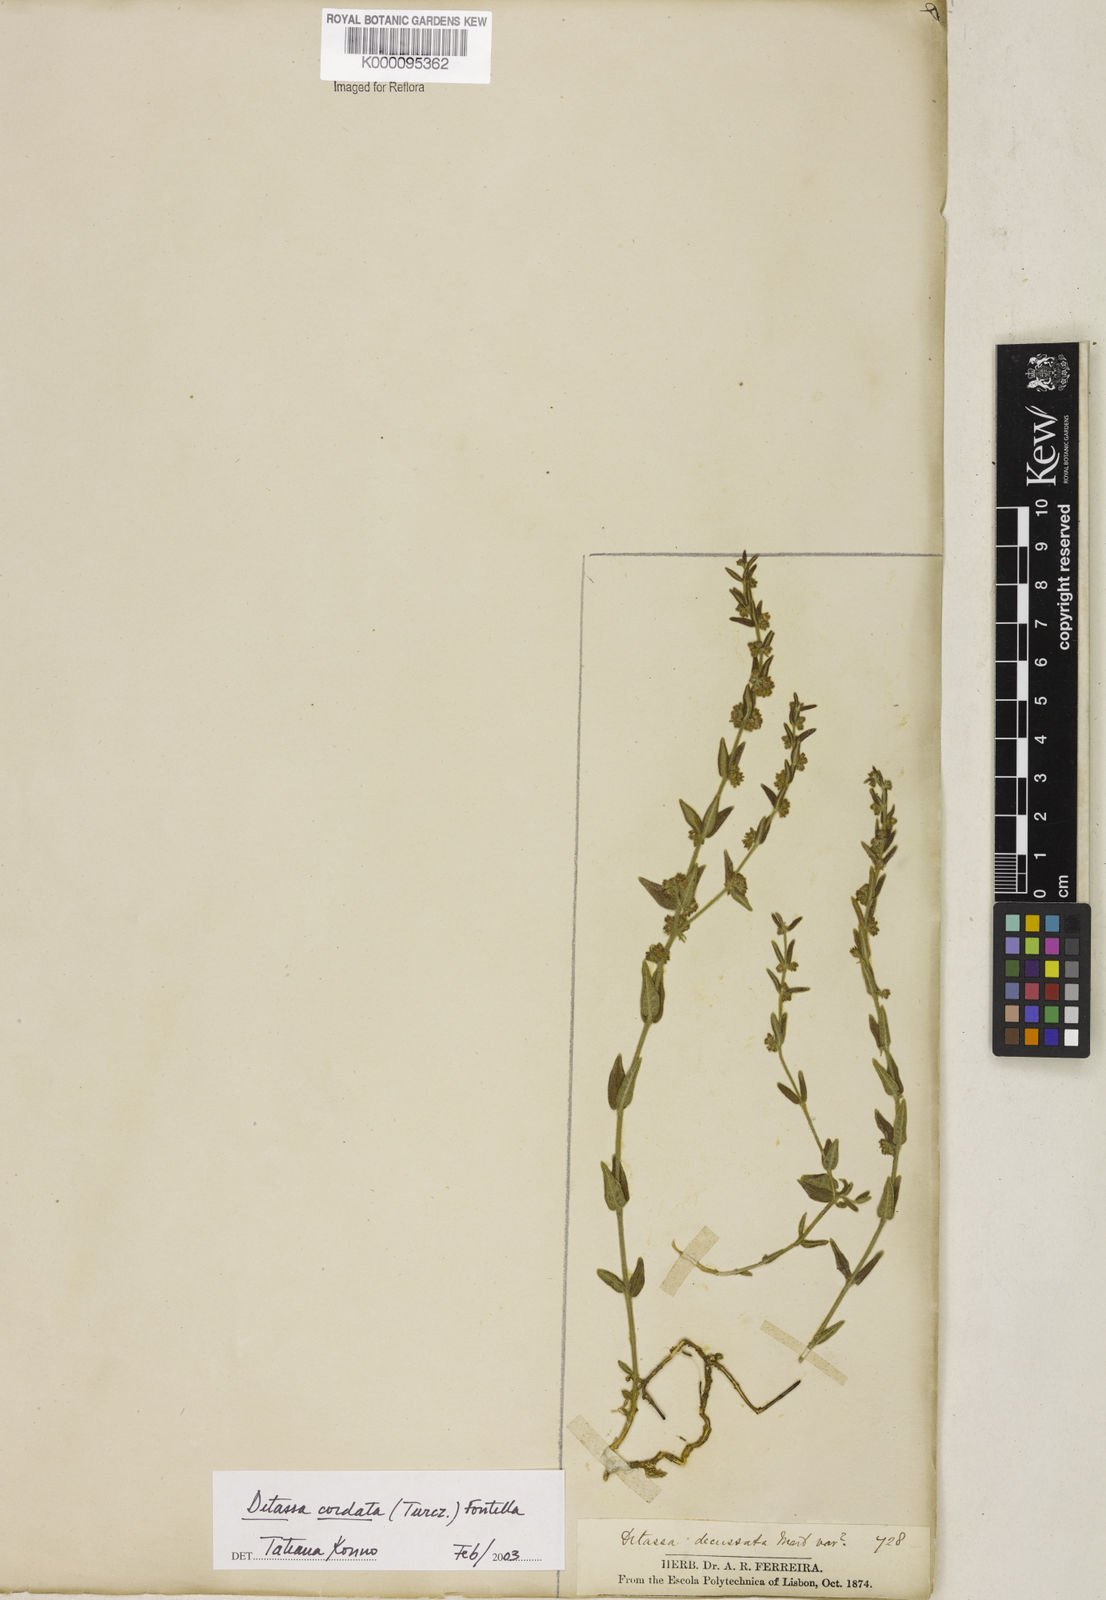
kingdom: Plantae
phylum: Tracheophyta
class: Magnoliopsida
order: Gentianales
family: Apocynaceae
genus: Minaria
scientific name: Minaria cordata
